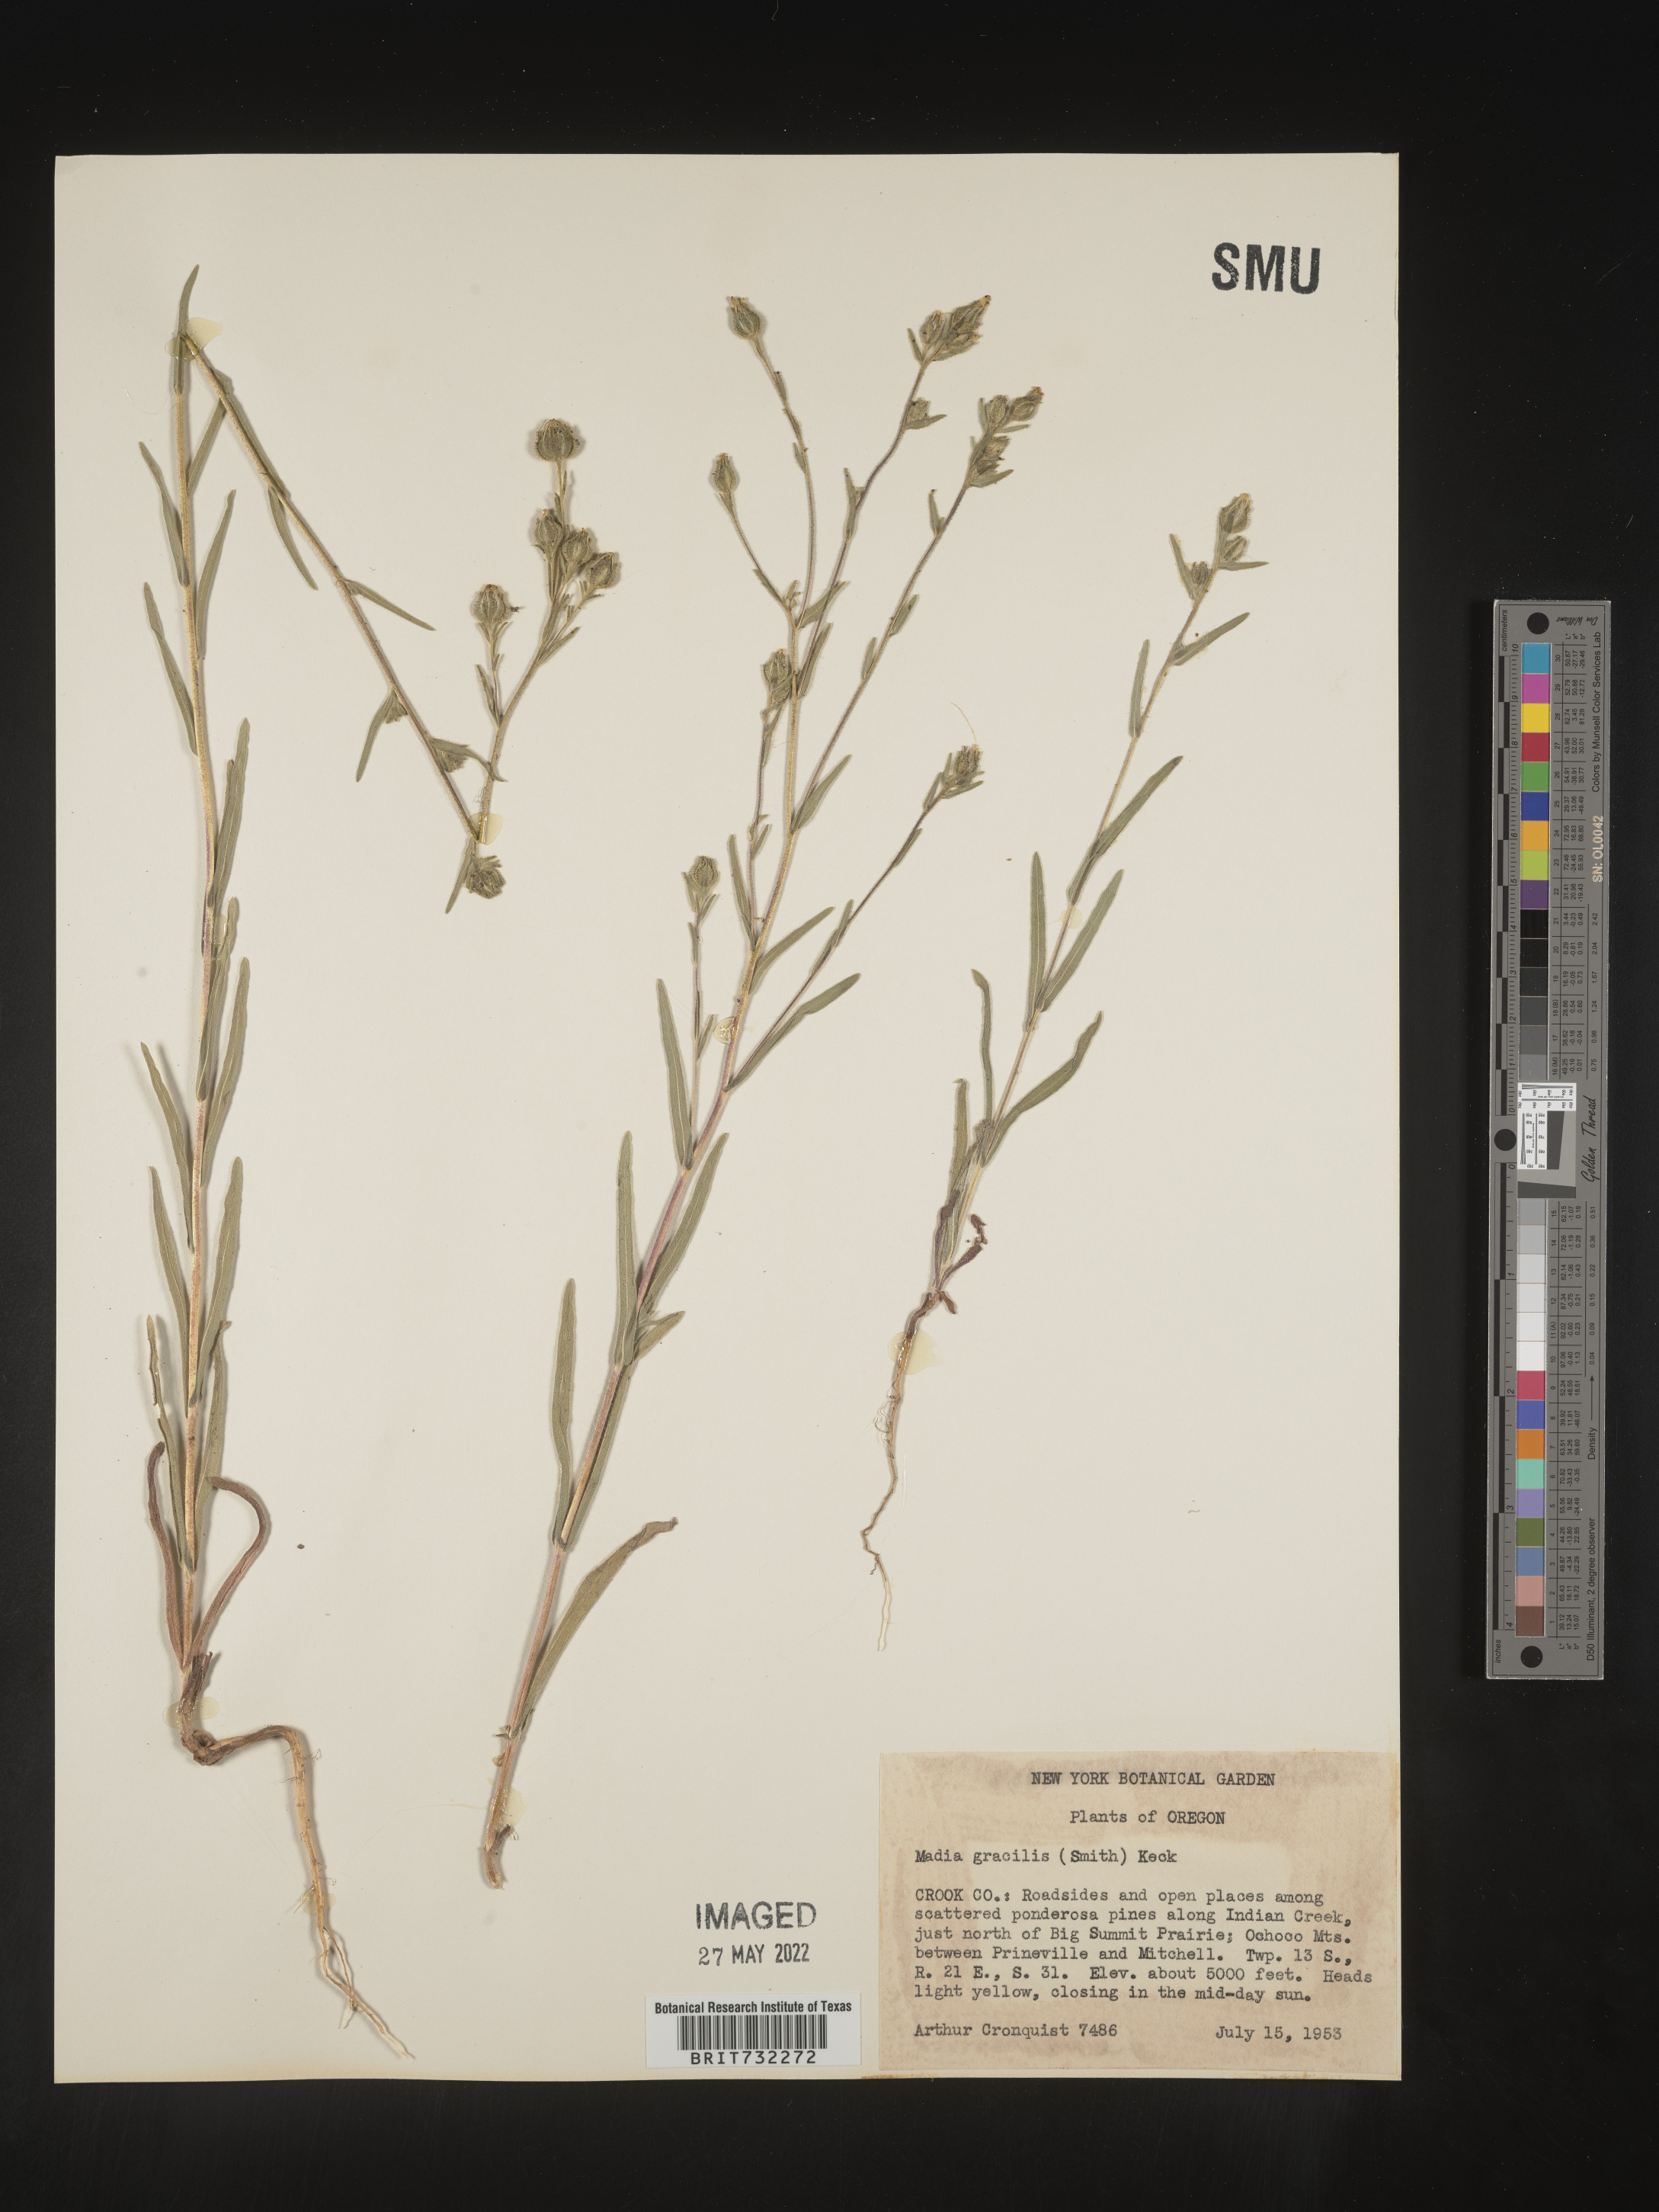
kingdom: Plantae
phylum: Tracheophyta
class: Magnoliopsida
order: Asterales
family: Asteraceae
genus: Madia
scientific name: Madia gracilis
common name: Grassy tarweed
